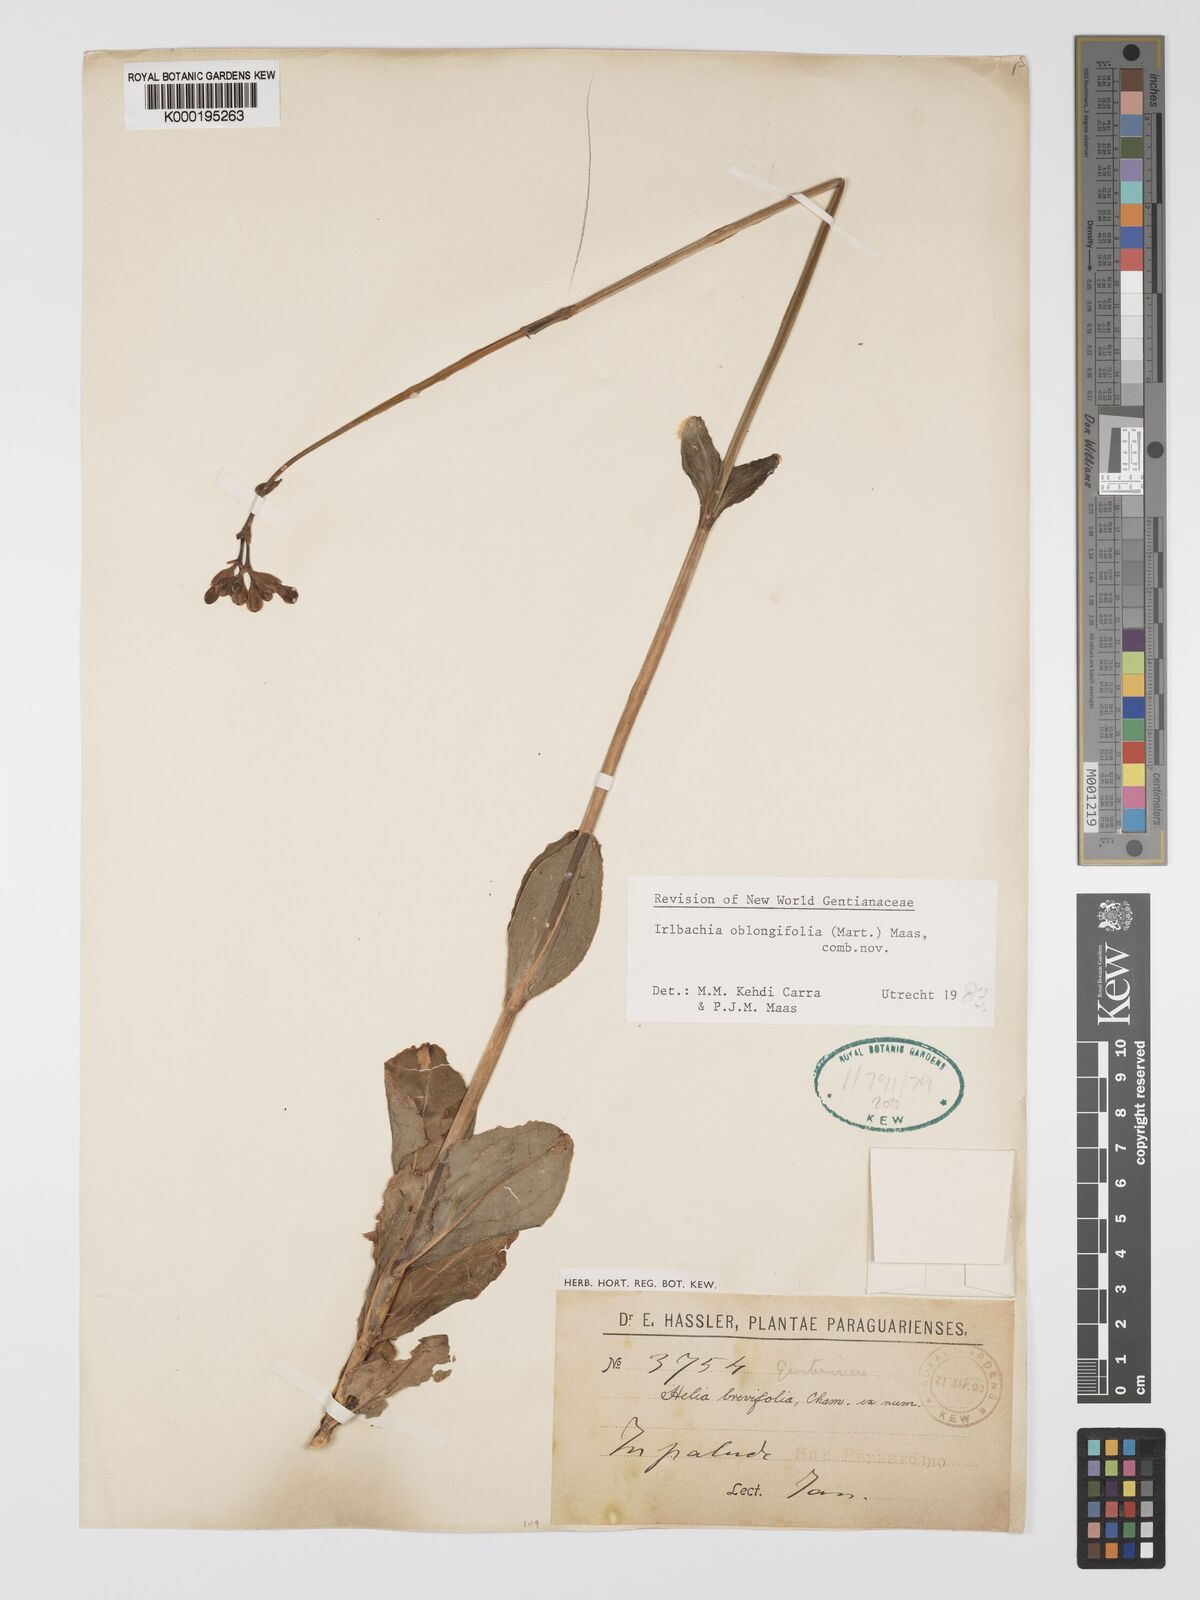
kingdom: Plantae
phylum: Tracheophyta
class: Magnoliopsida
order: Gentianales
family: Gentianaceae
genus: Irlbachia
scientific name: Irlbachia oblongifolia
